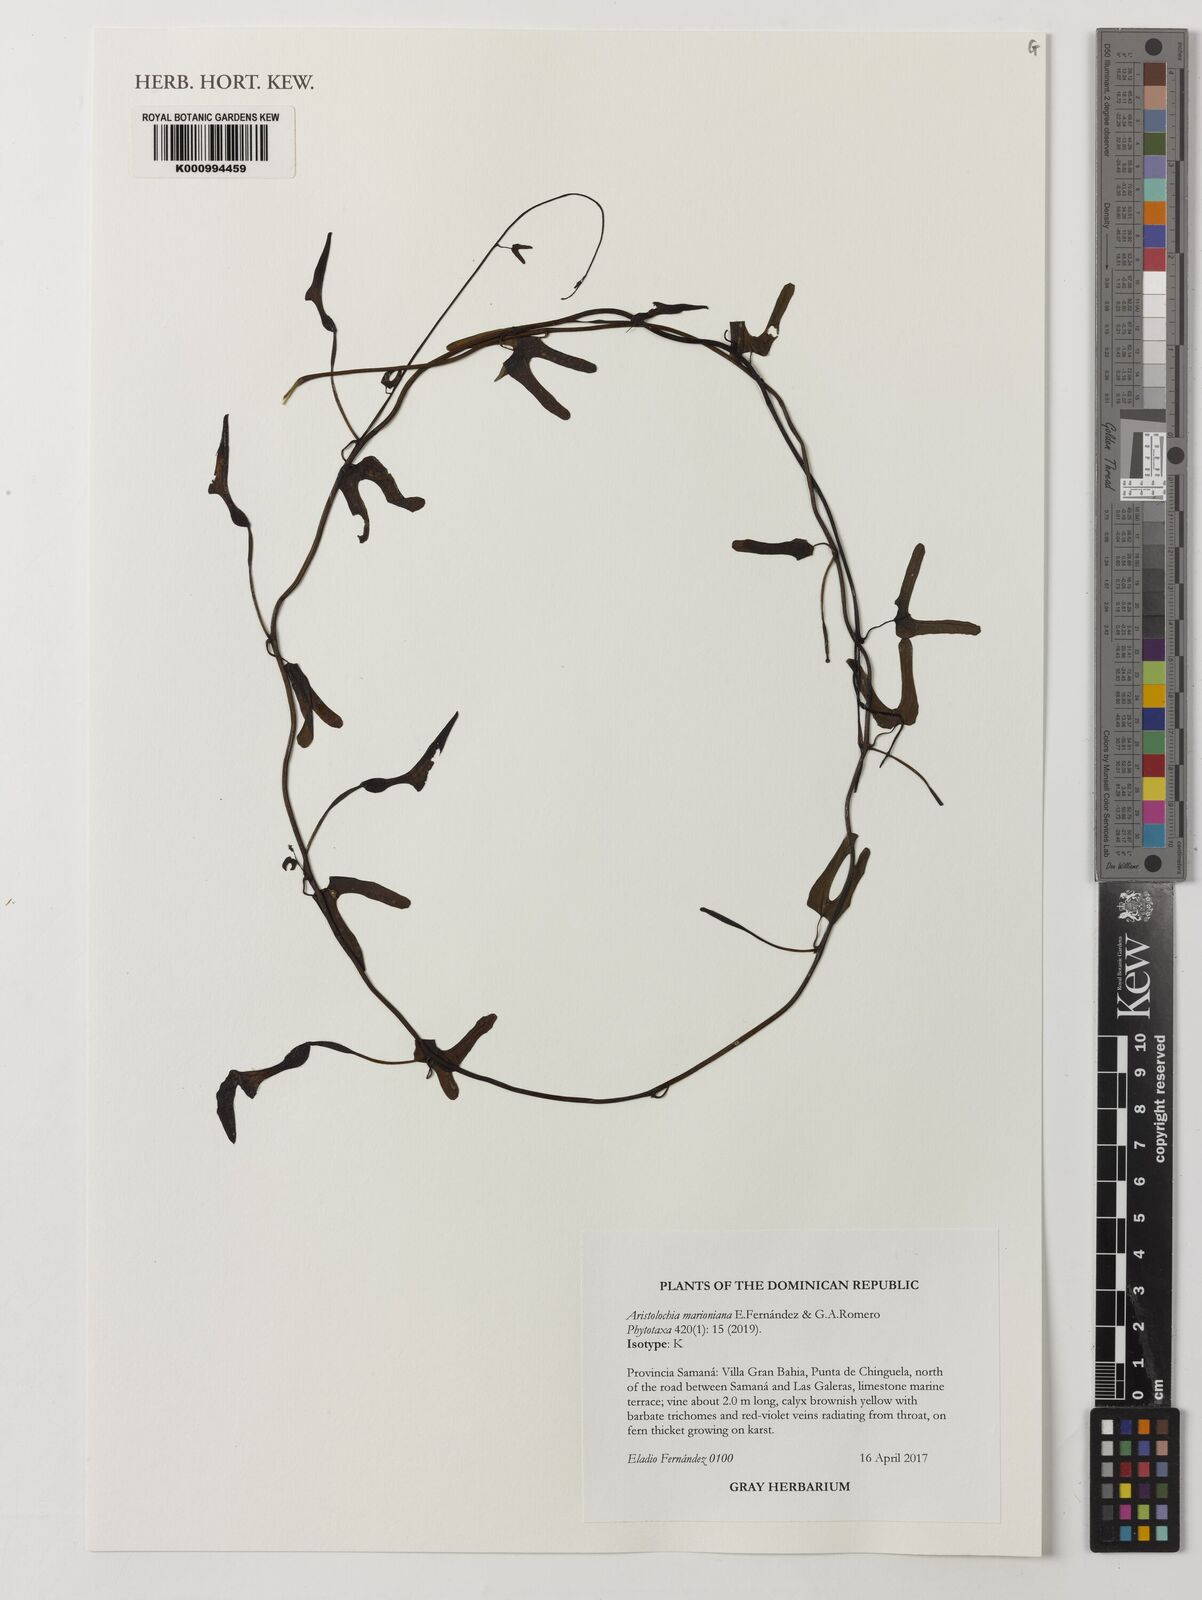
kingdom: Plantae
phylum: Tracheophyta
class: Magnoliopsida
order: Piperales
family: Aristolochiaceae
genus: Aristolochia
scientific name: Aristolochia marioniana
